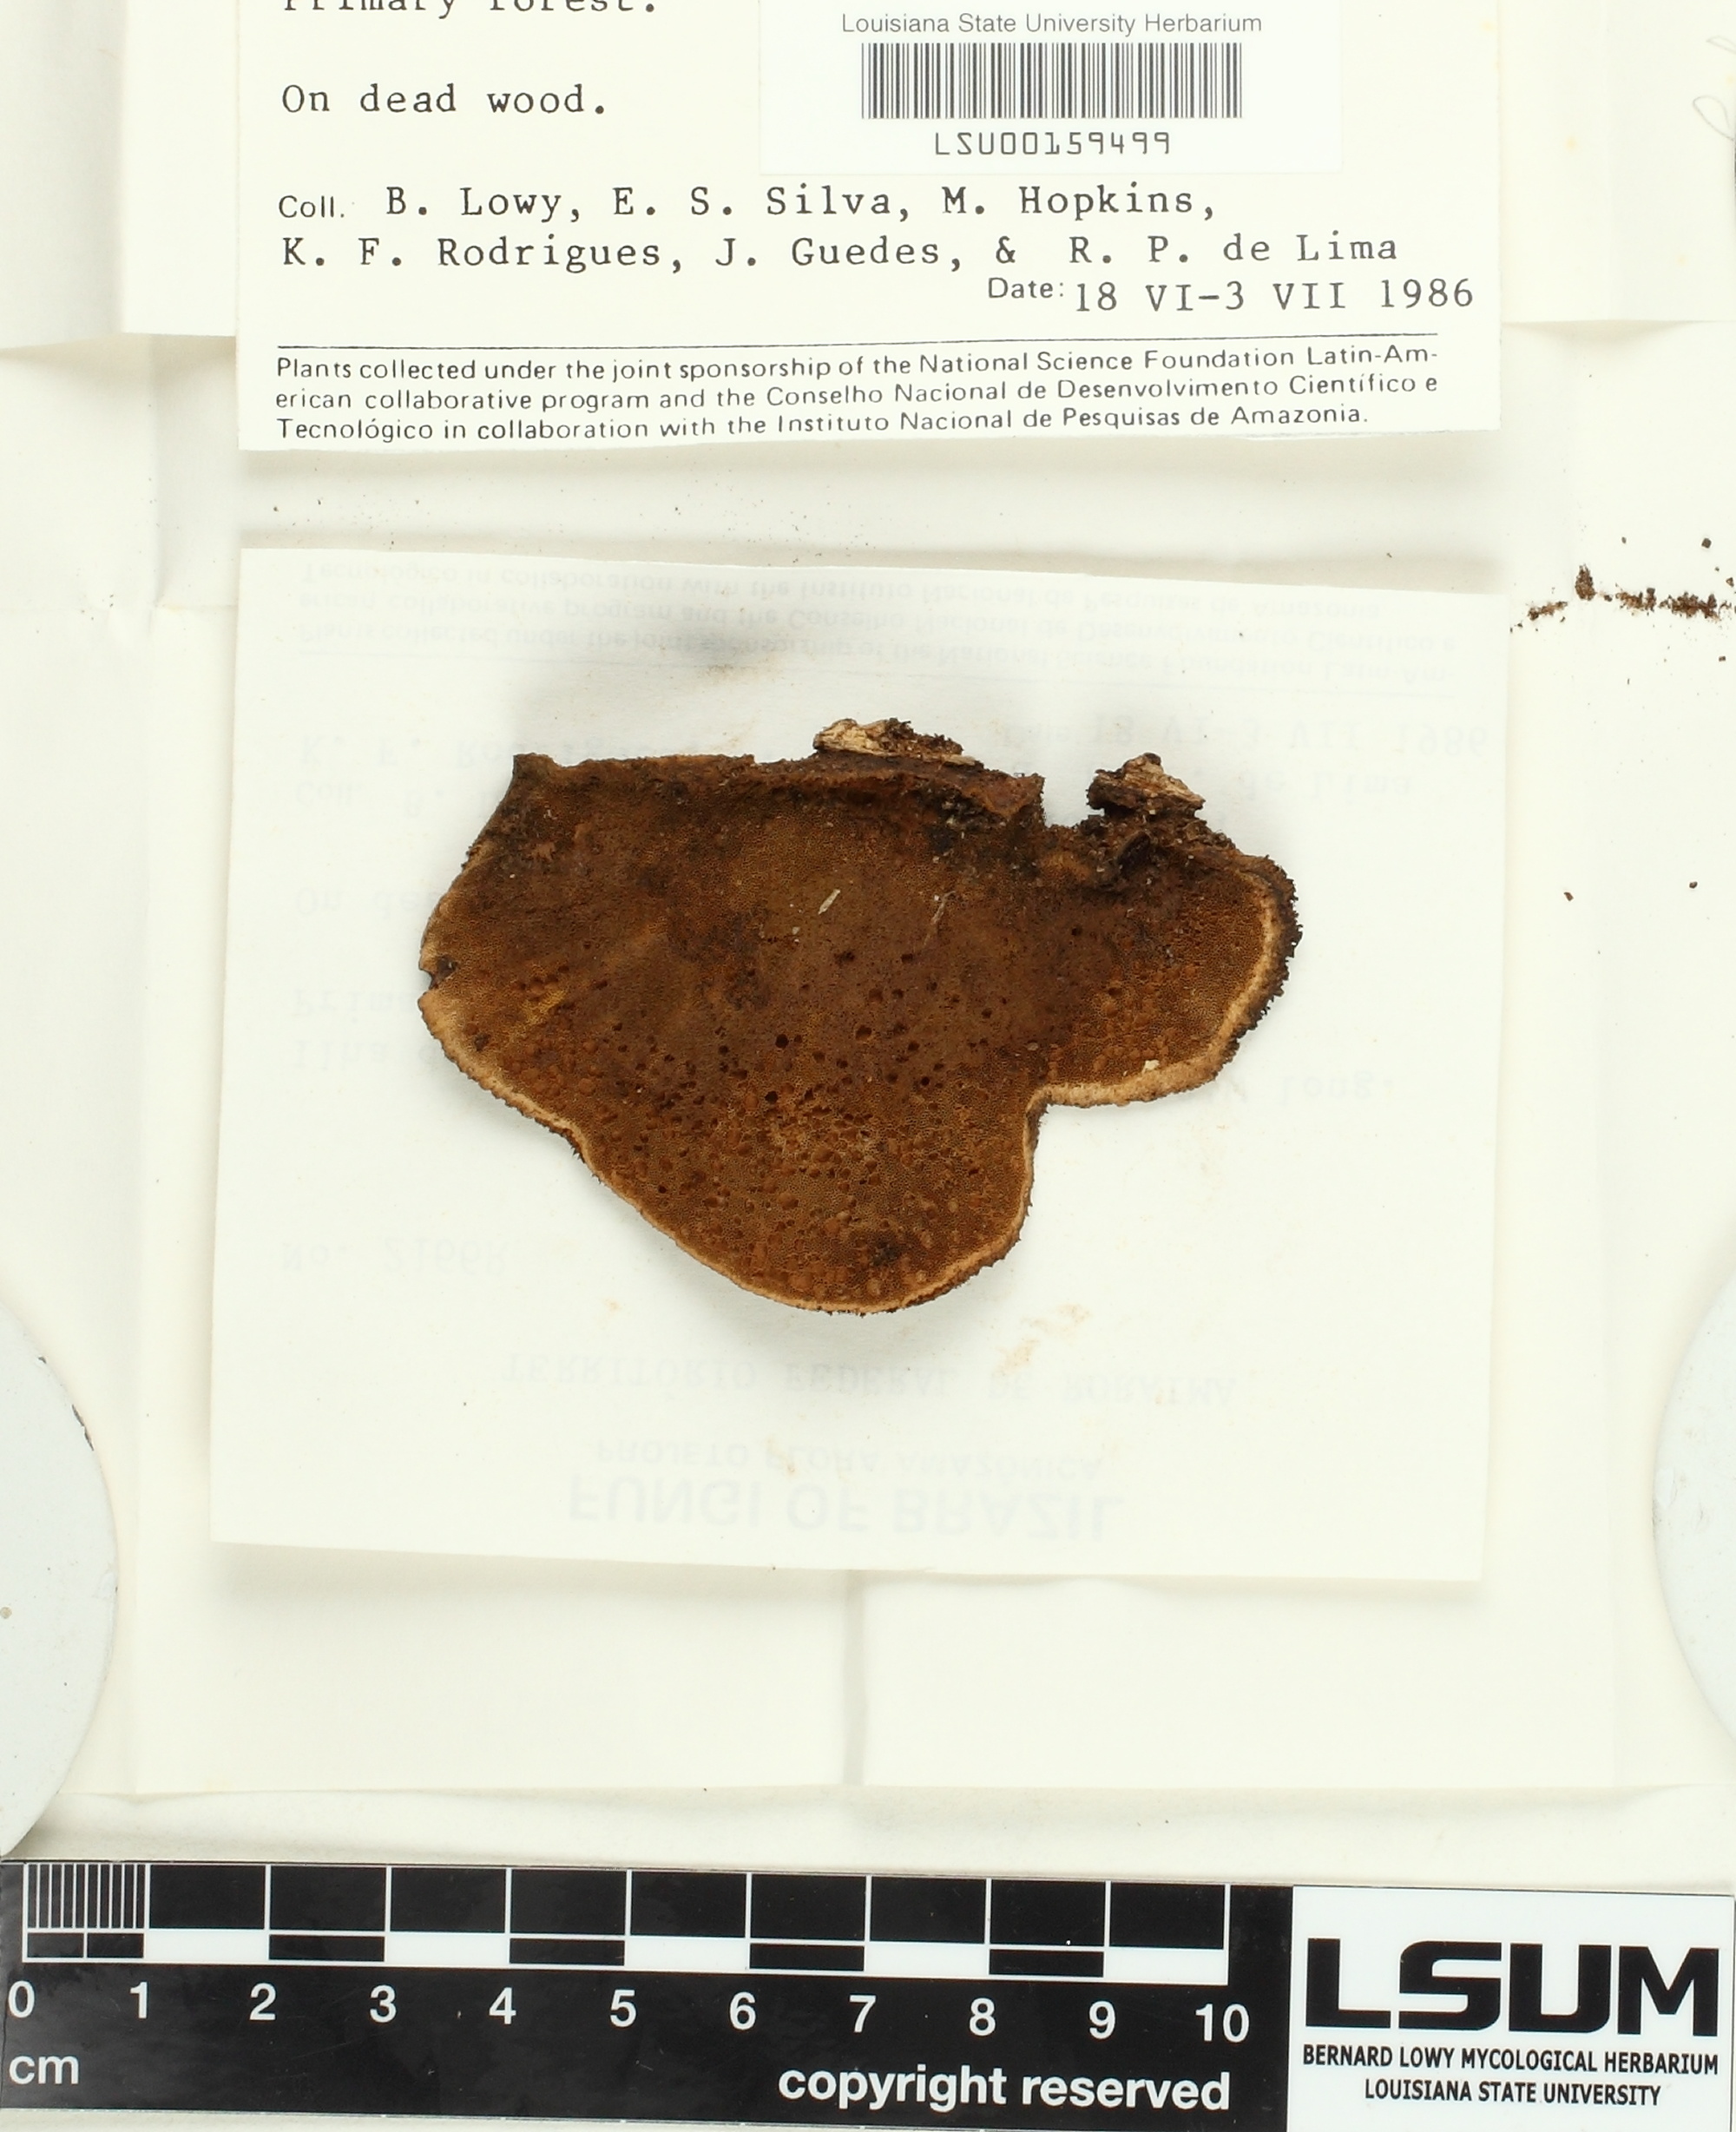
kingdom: Fungi
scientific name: Fungi
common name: Fungi
